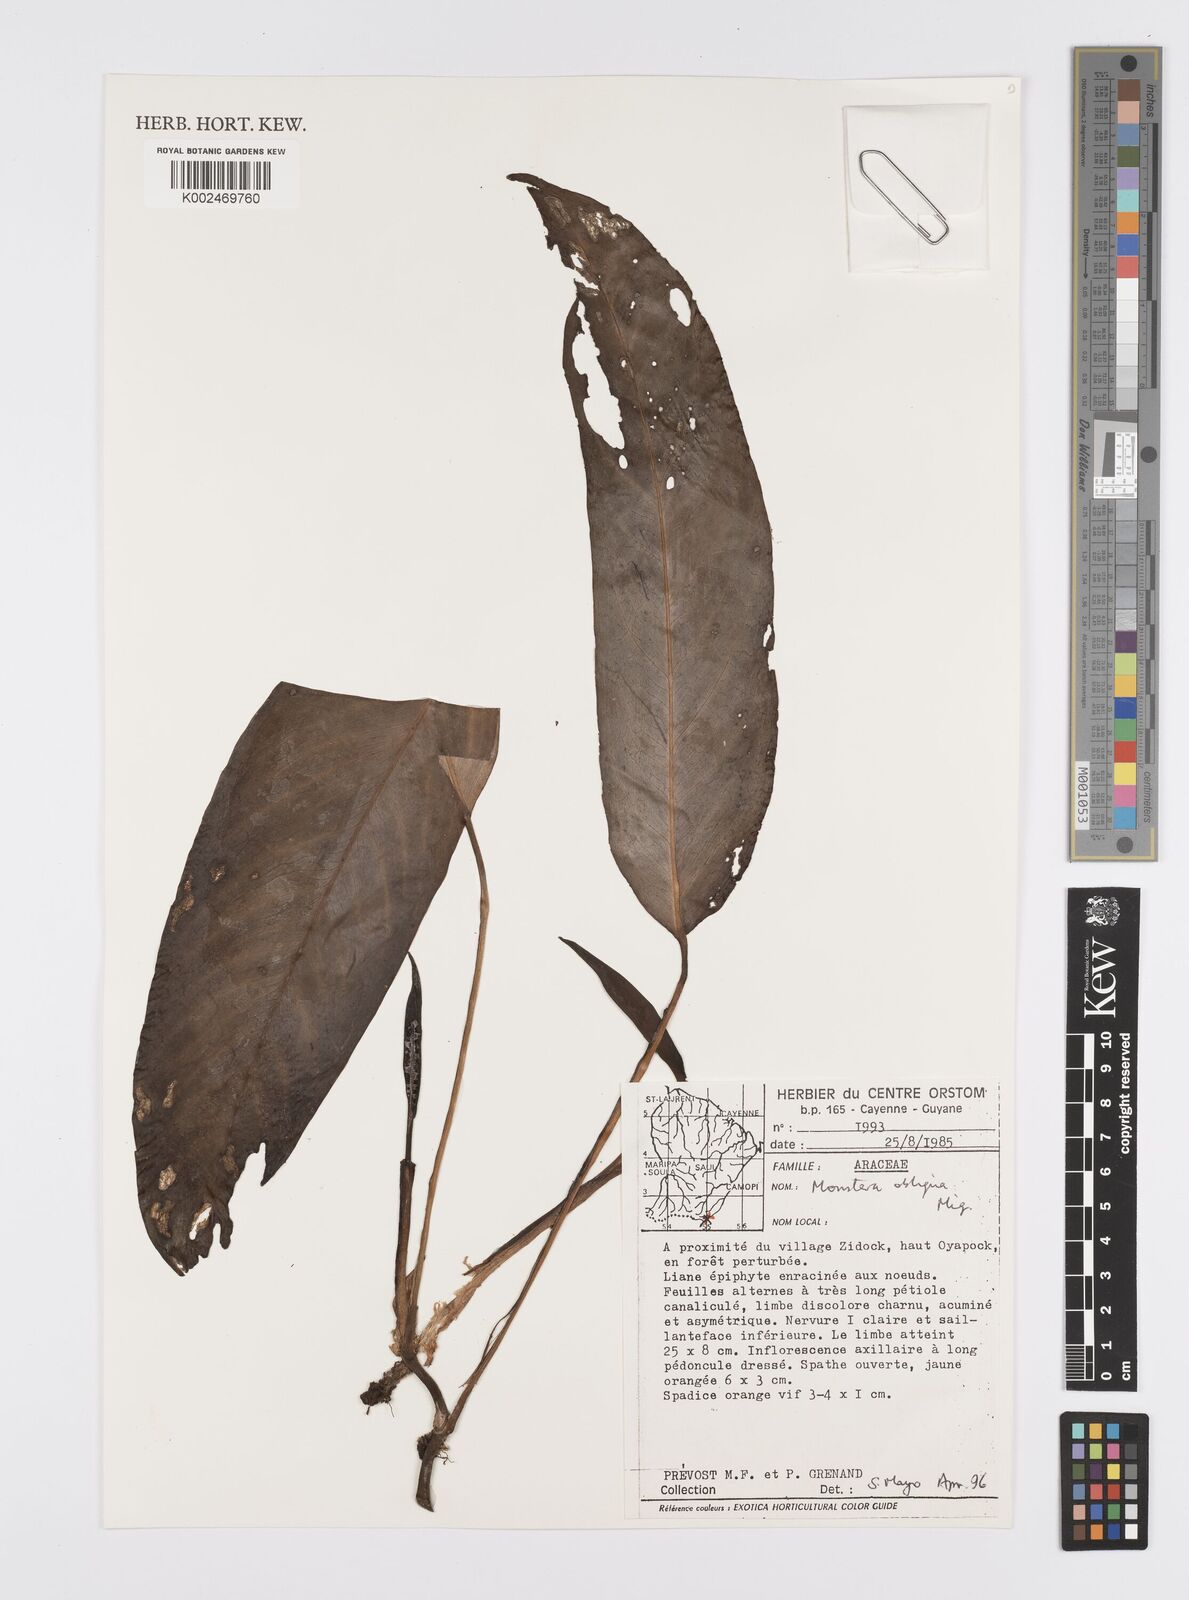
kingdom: Plantae
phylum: Tracheophyta
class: Liliopsida
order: Alismatales
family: Araceae
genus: Monstera
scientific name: Monstera obliqua
